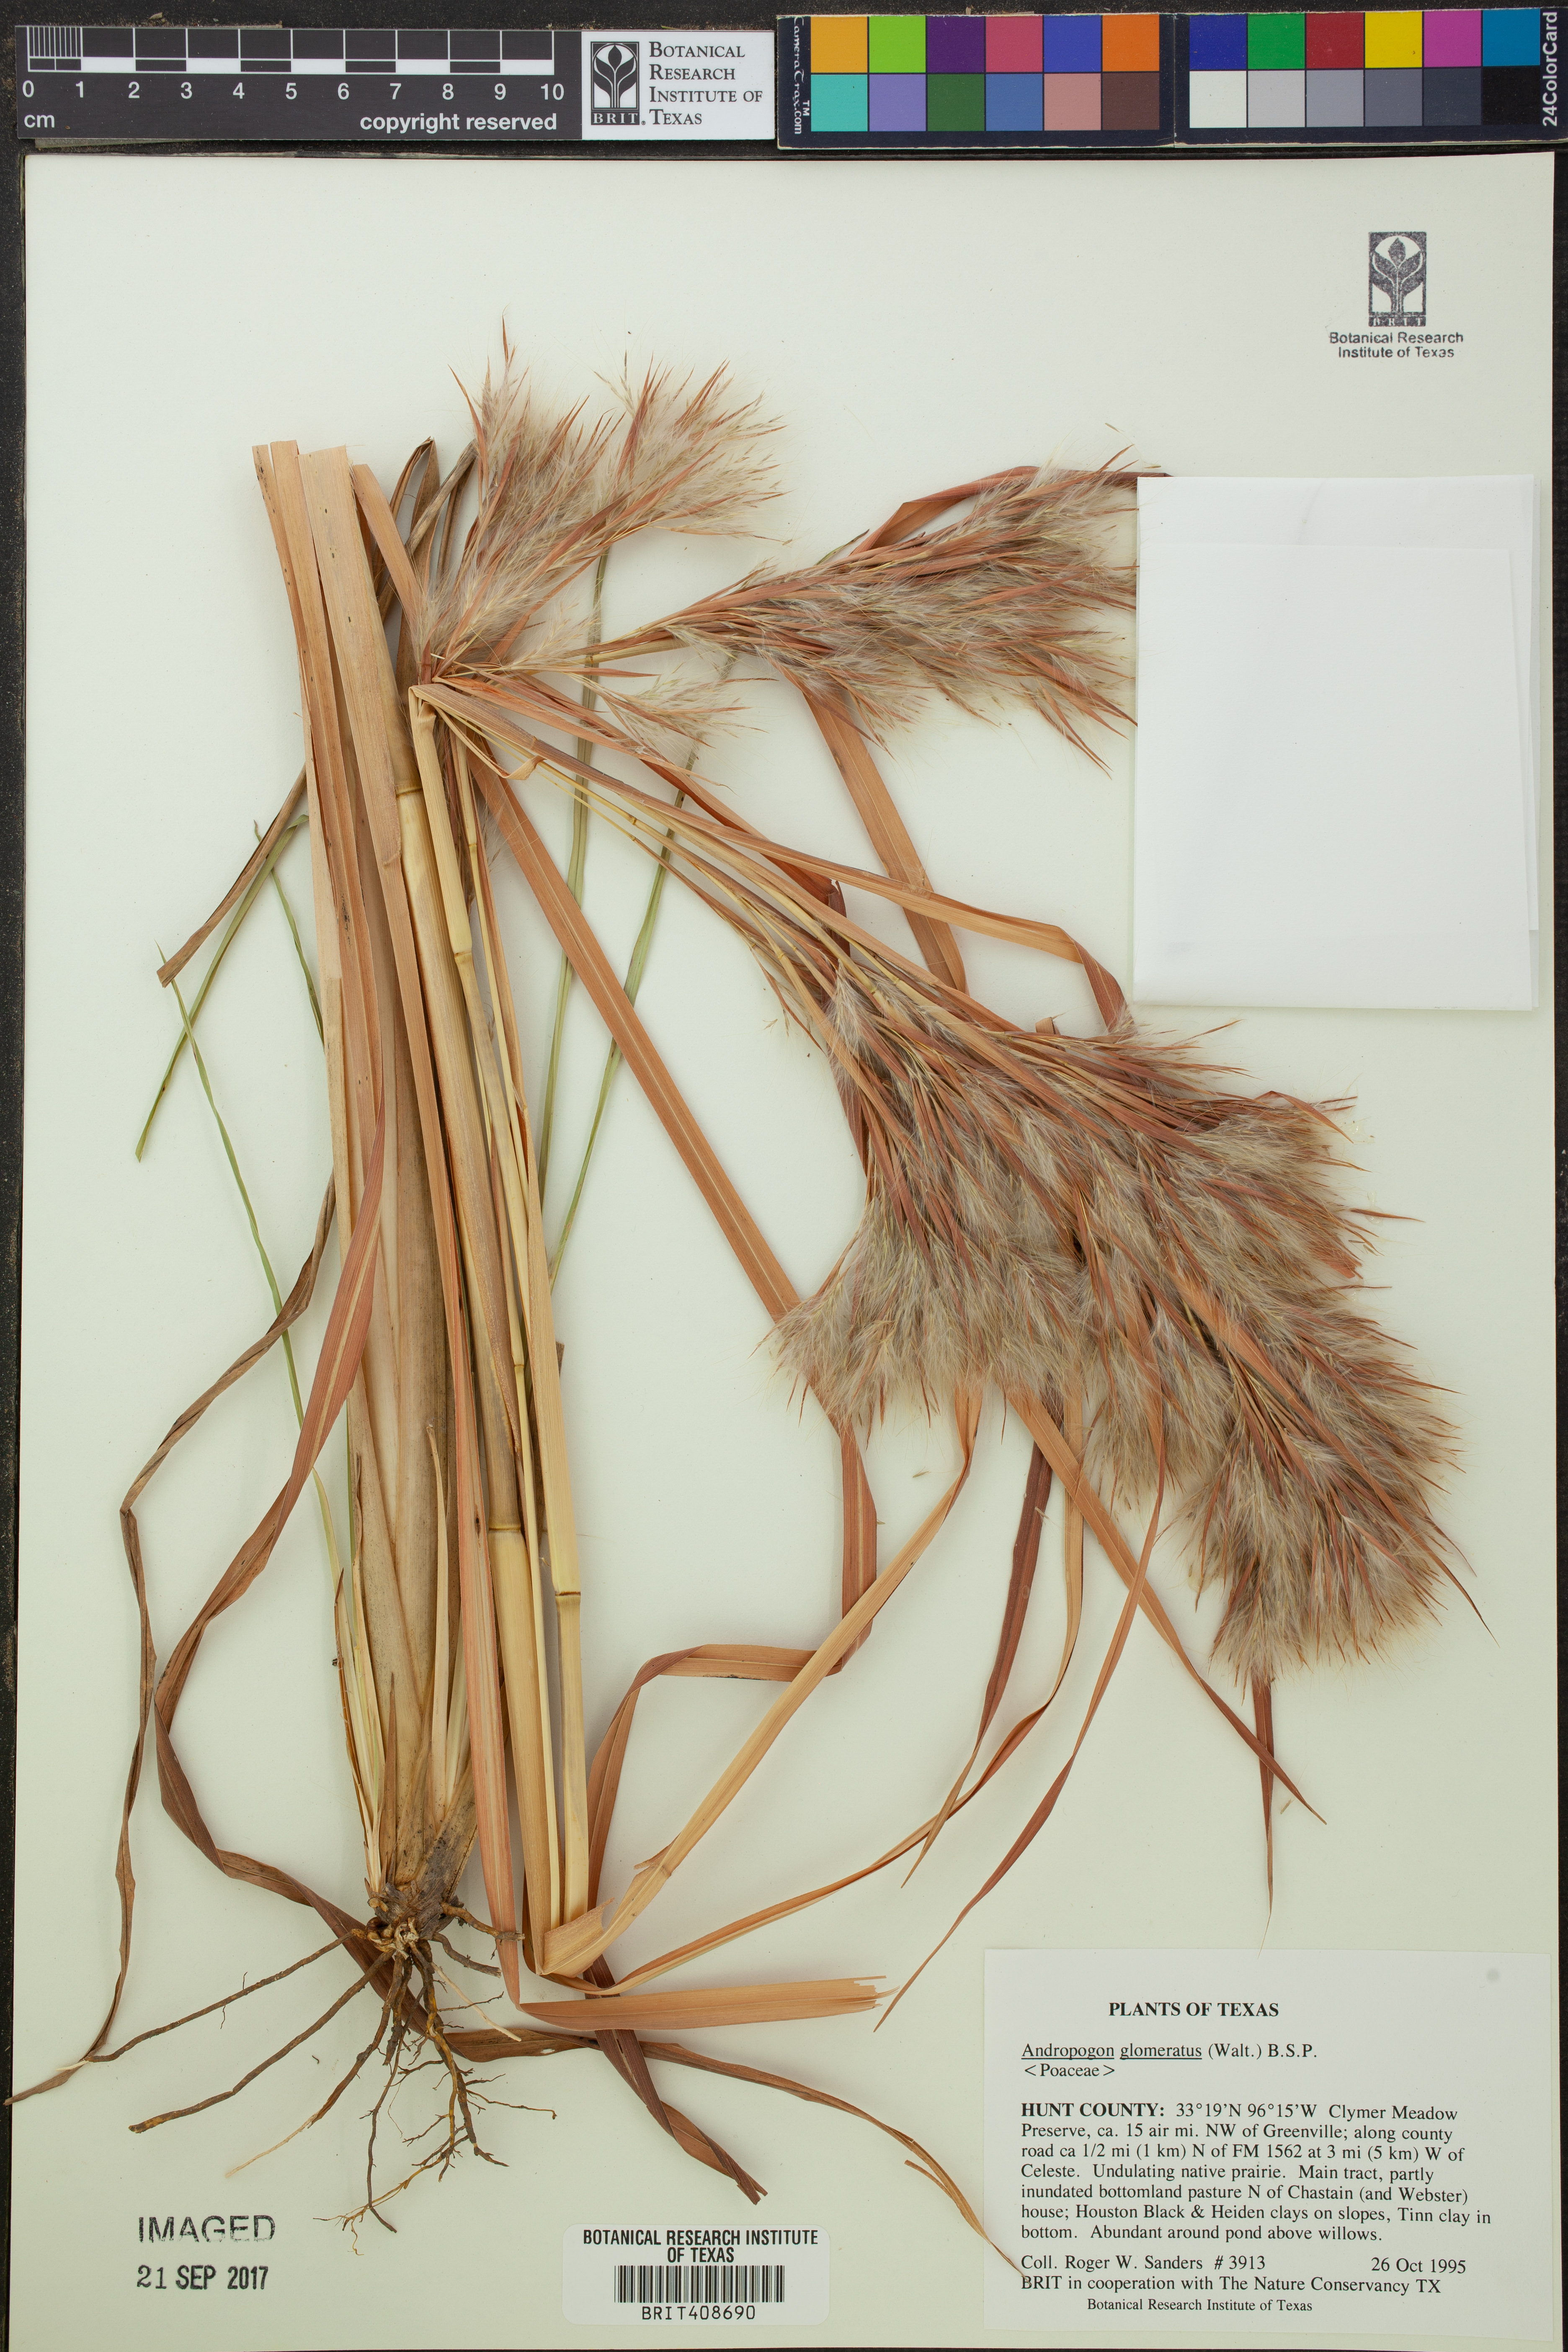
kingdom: Plantae
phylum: Tracheophyta
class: Liliopsida
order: Poales
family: Poaceae
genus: Andropogon
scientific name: Andropogon glomeratus
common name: Bushy beard grass
